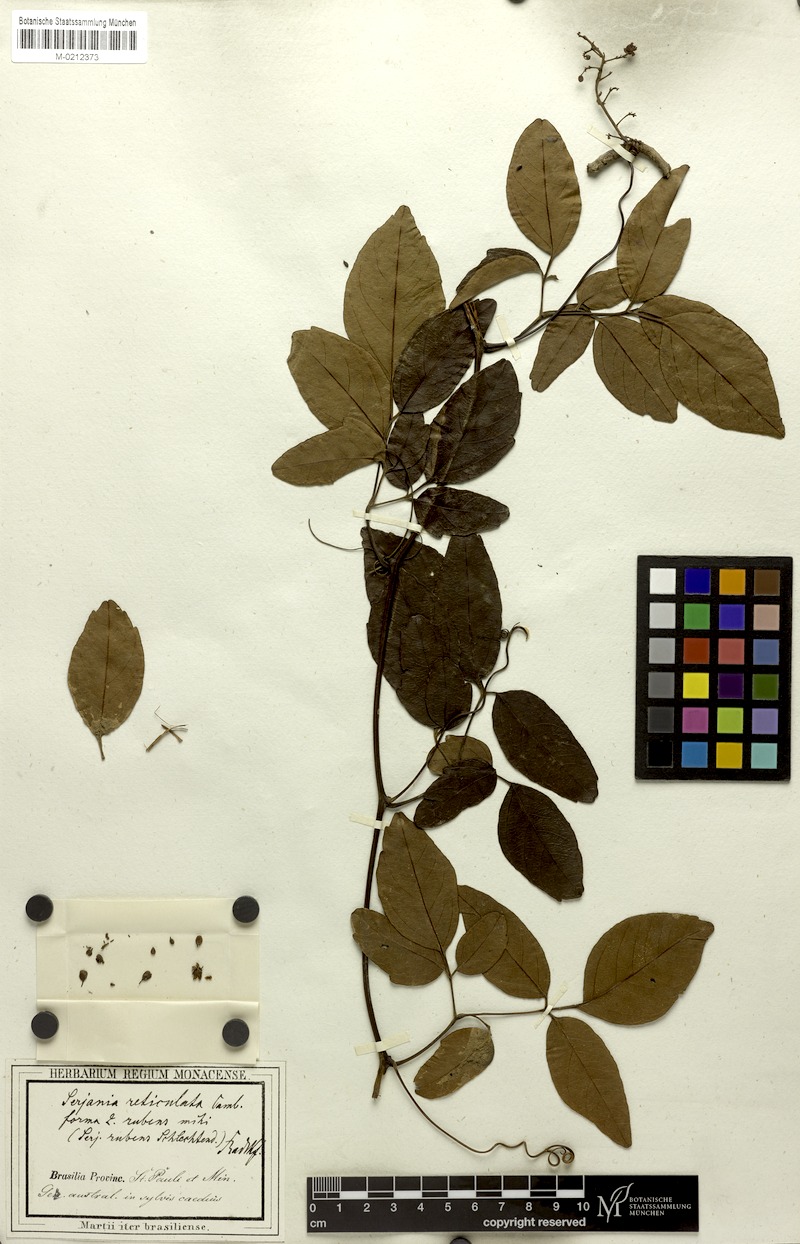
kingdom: Plantae
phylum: Tracheophyta
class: Magnoliopsida
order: Sapindales
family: Sapindaceae
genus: Serjania
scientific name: Serjania reticulata
